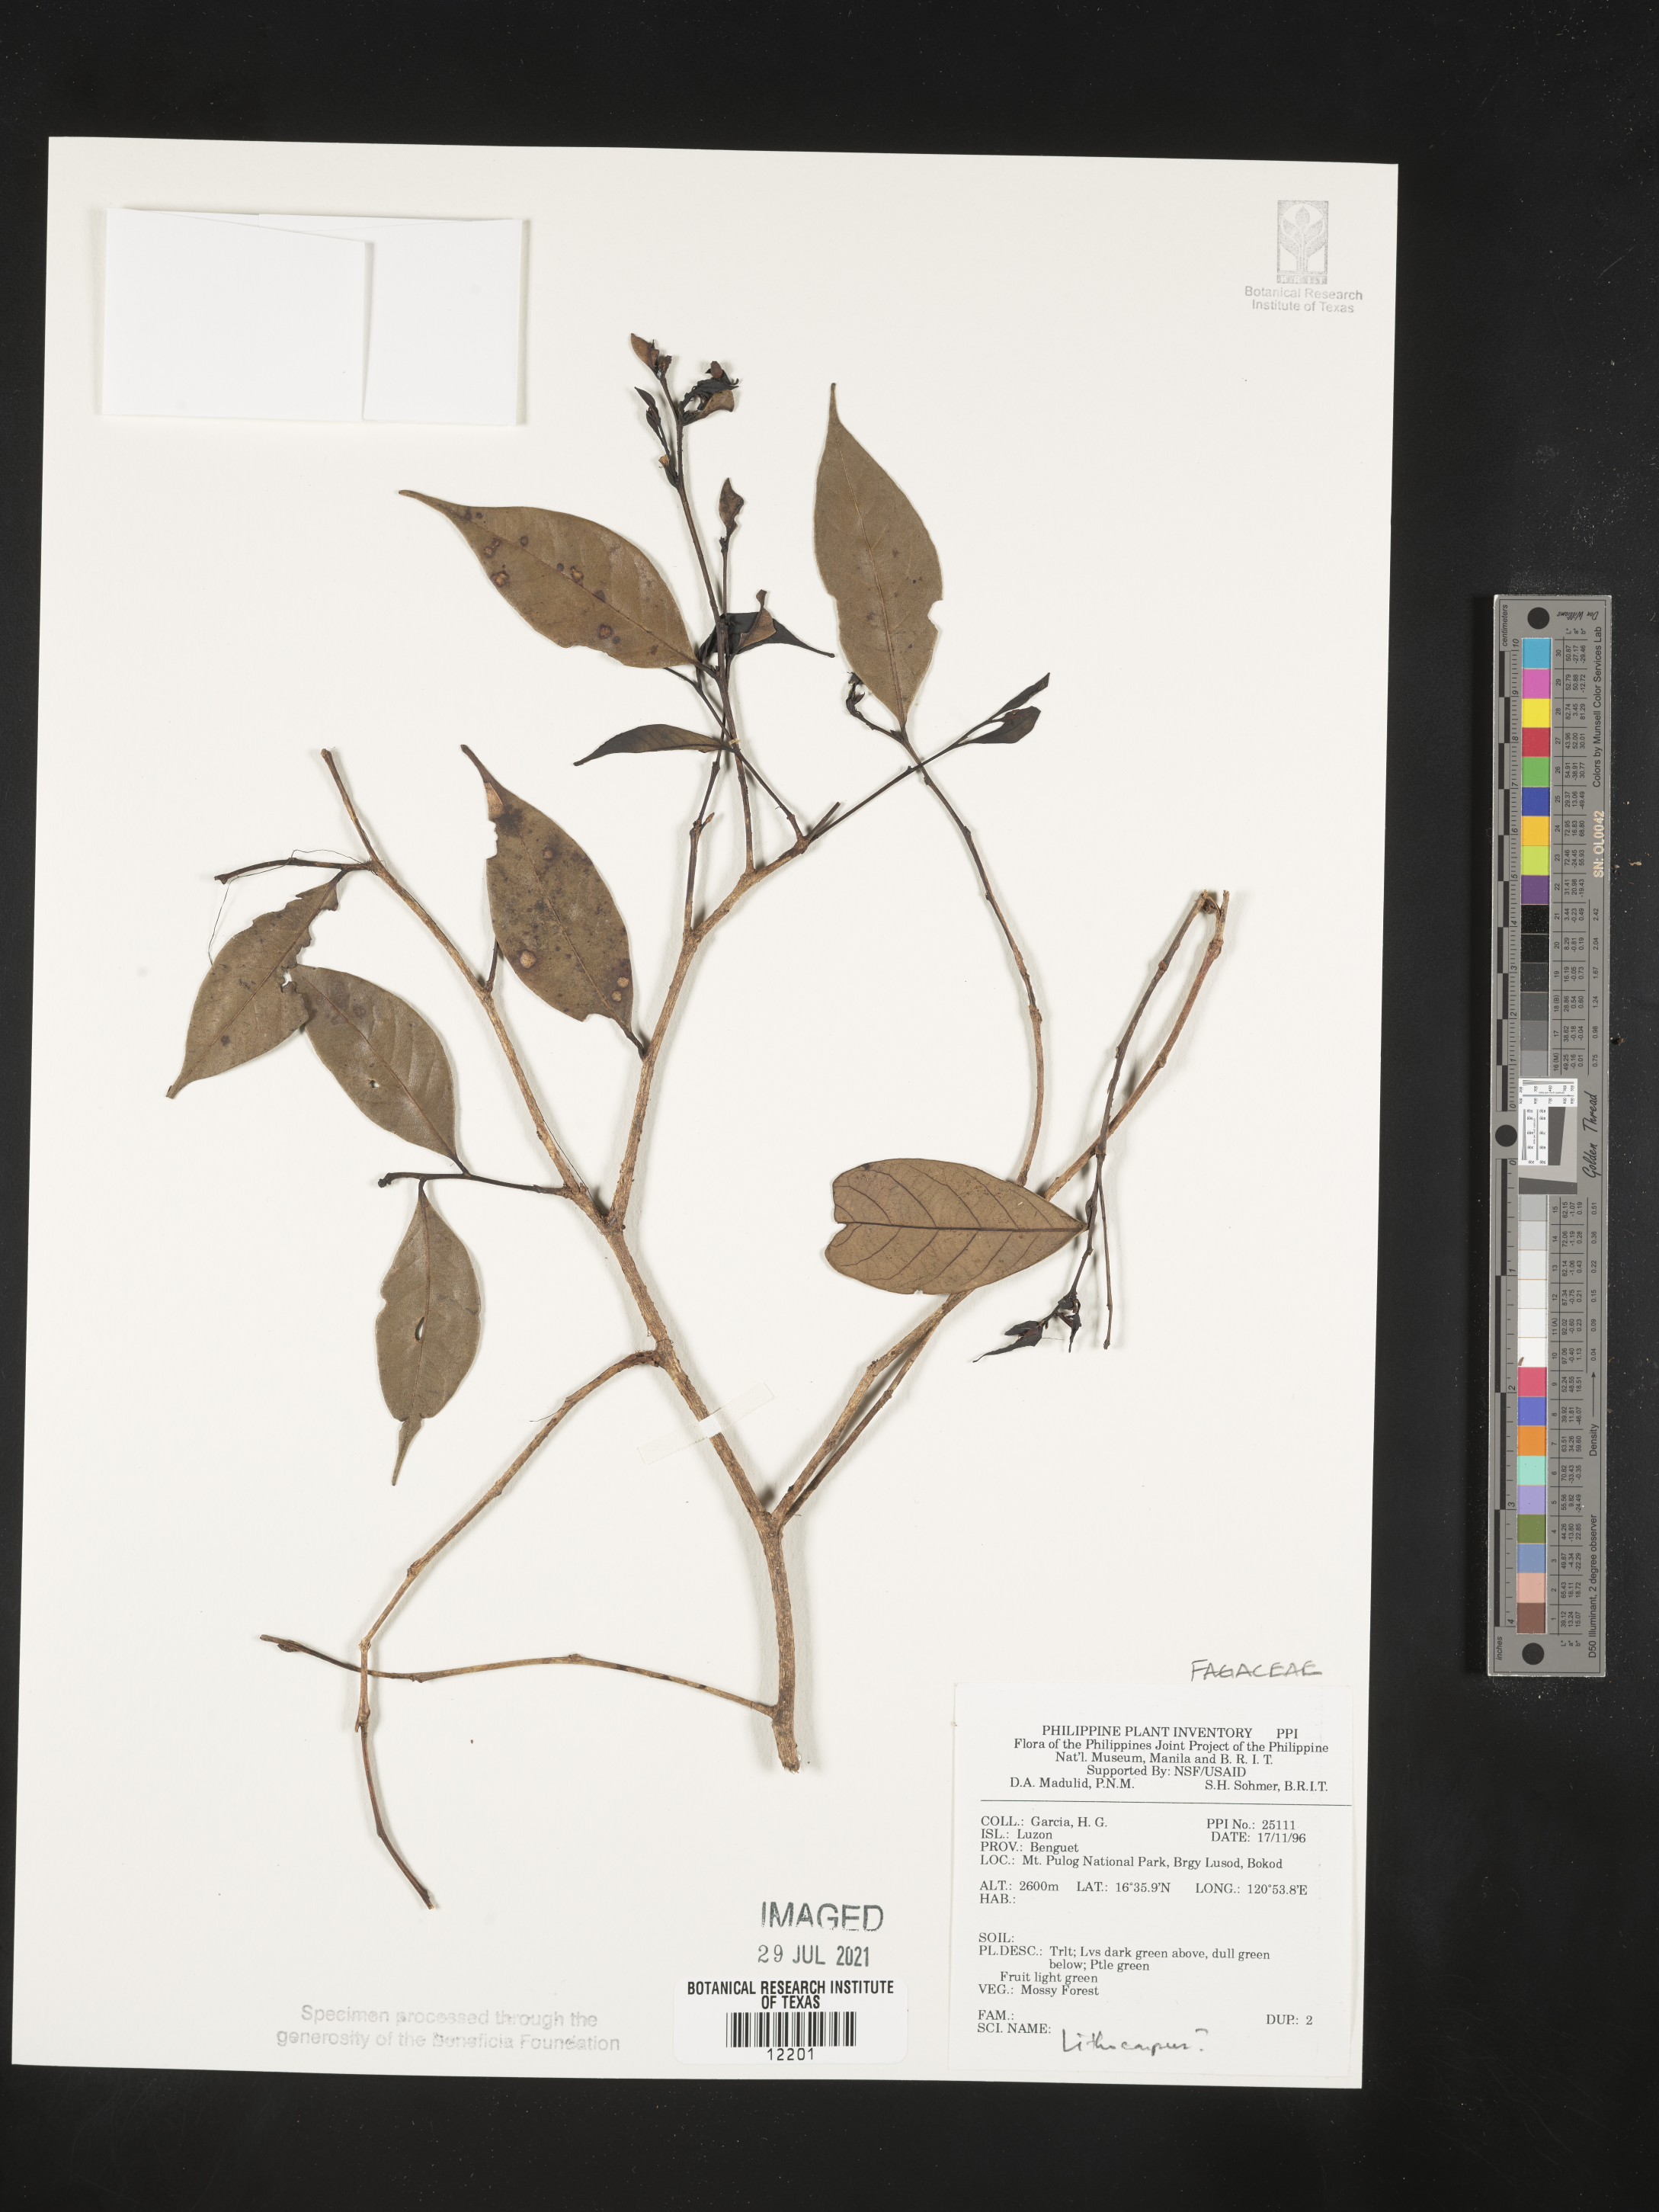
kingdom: Plantae
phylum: Tracheophyta
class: Magnoliopsida
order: Fagales
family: Fagaceae
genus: Lithocarpus
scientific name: Lithocarpus
